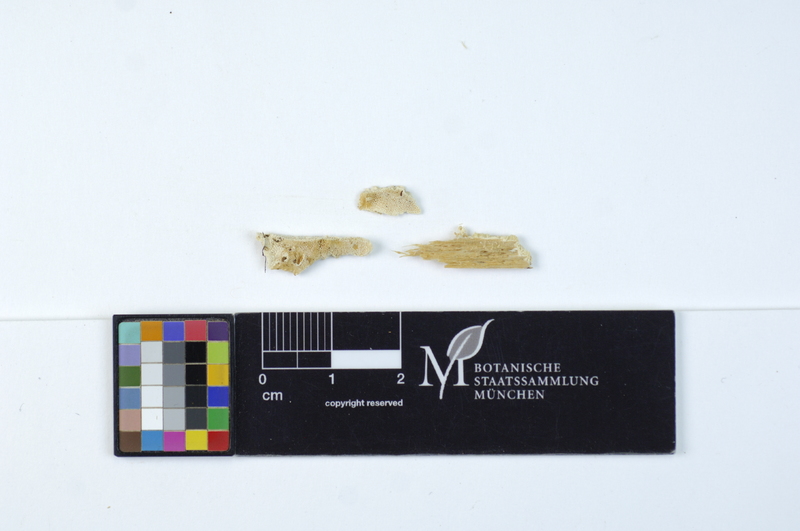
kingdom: Plantae
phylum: Tracheophyta
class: Pinopsida
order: Pinales
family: Pinaceae
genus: Picea
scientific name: Picea
